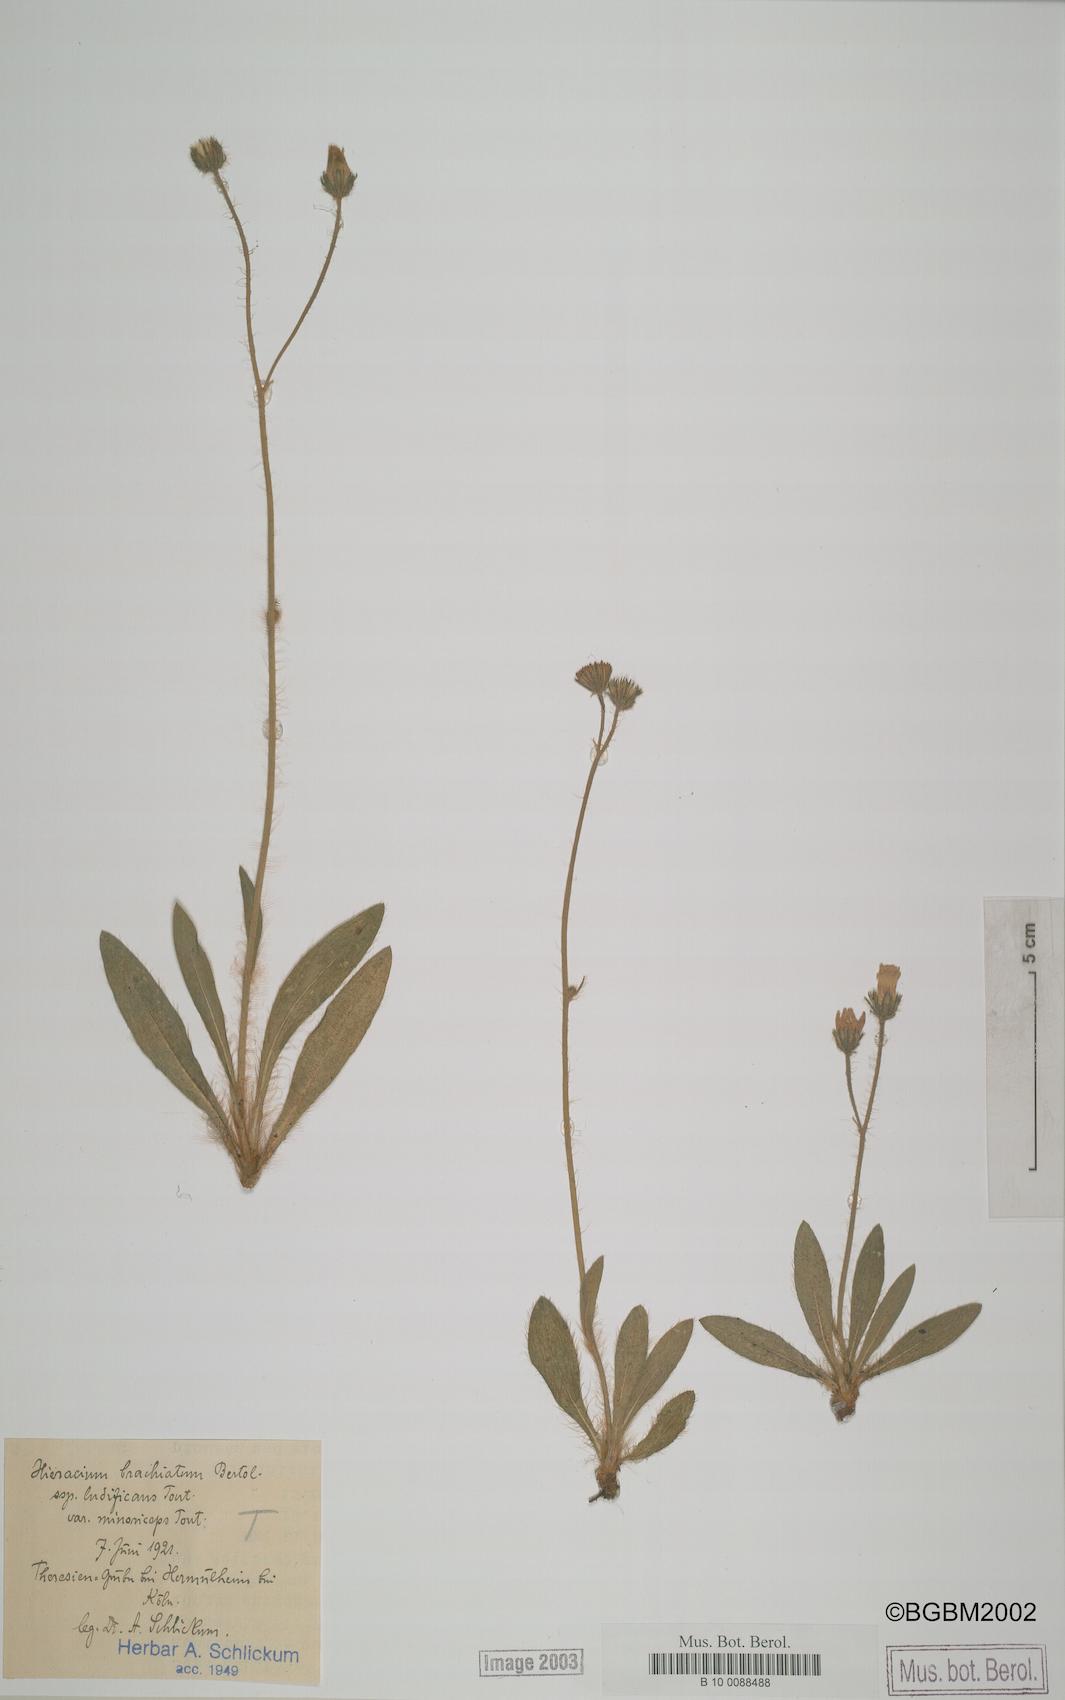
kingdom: Plantae
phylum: Tracheophyta
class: Magnoliopsida
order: Asterales
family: Asteraceae
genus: Pilosella
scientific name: Pilosella acutifolia
